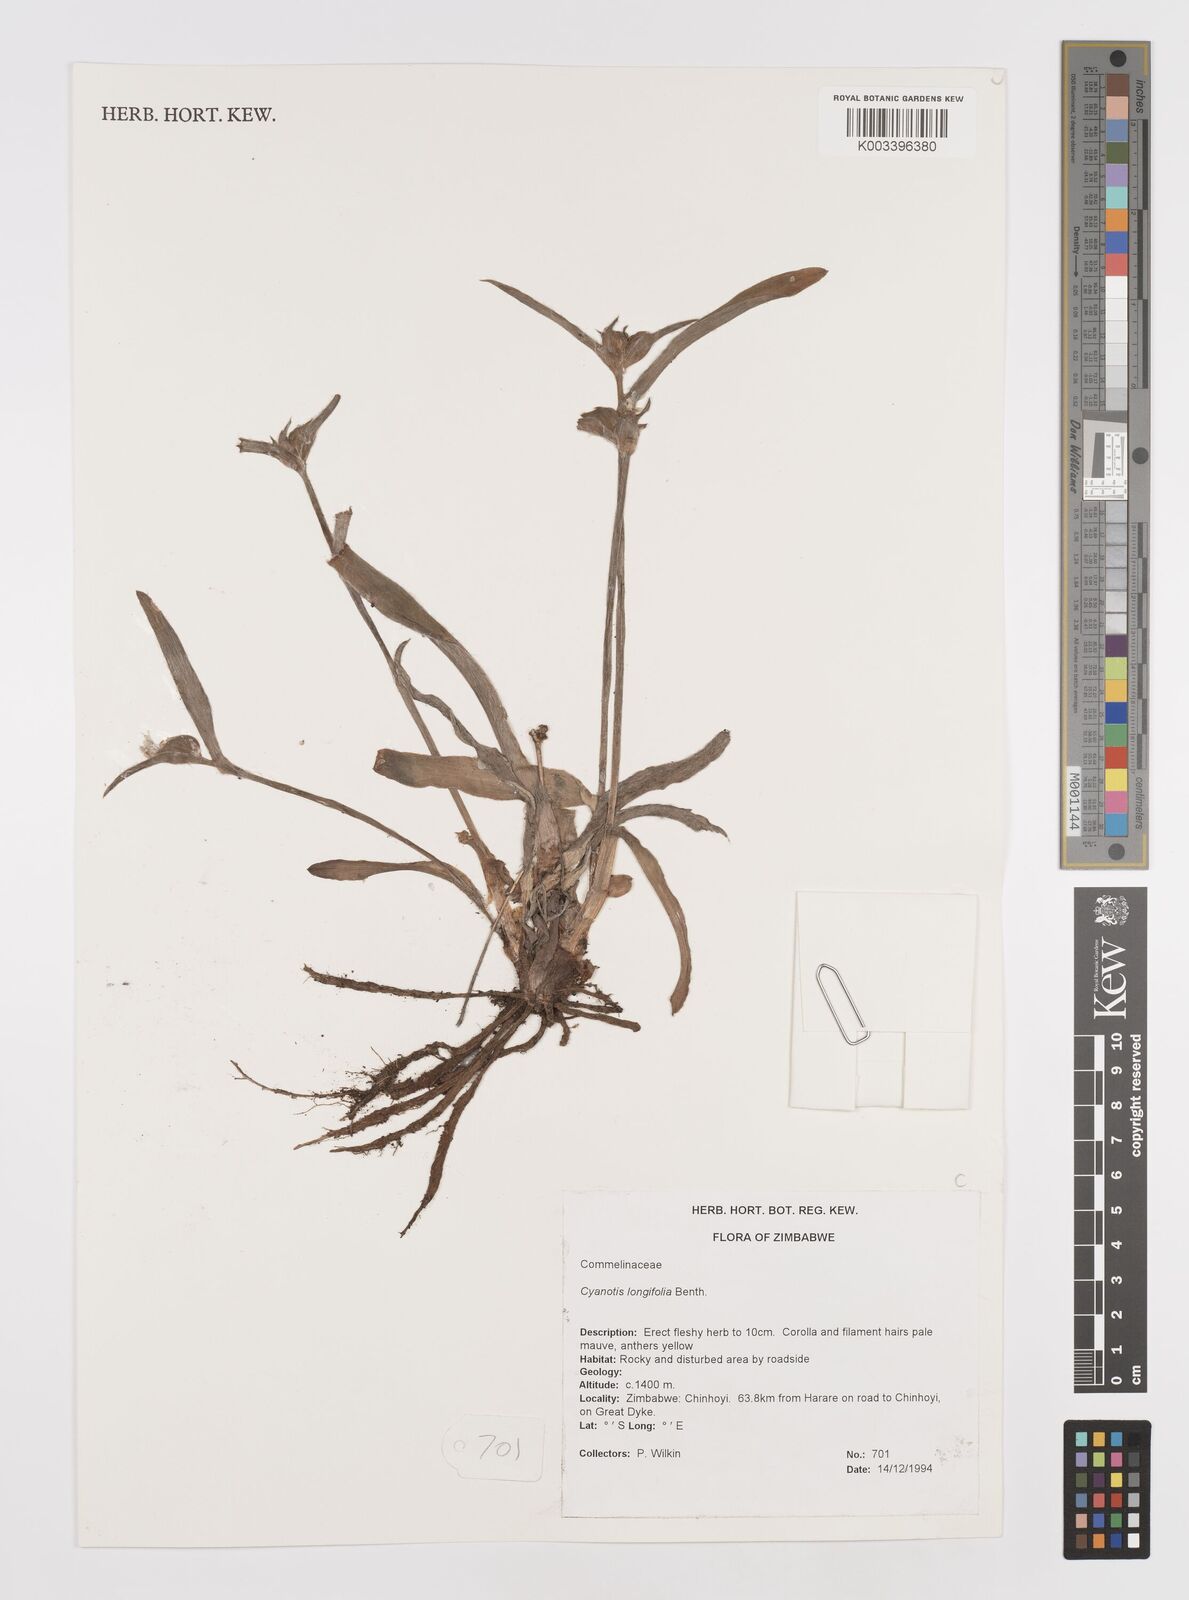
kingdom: Plantae
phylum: Tracheophyta
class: Liliopsida
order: Commelinales
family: Commelinaceae
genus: Cyanotis
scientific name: Cyanotis longifolia
